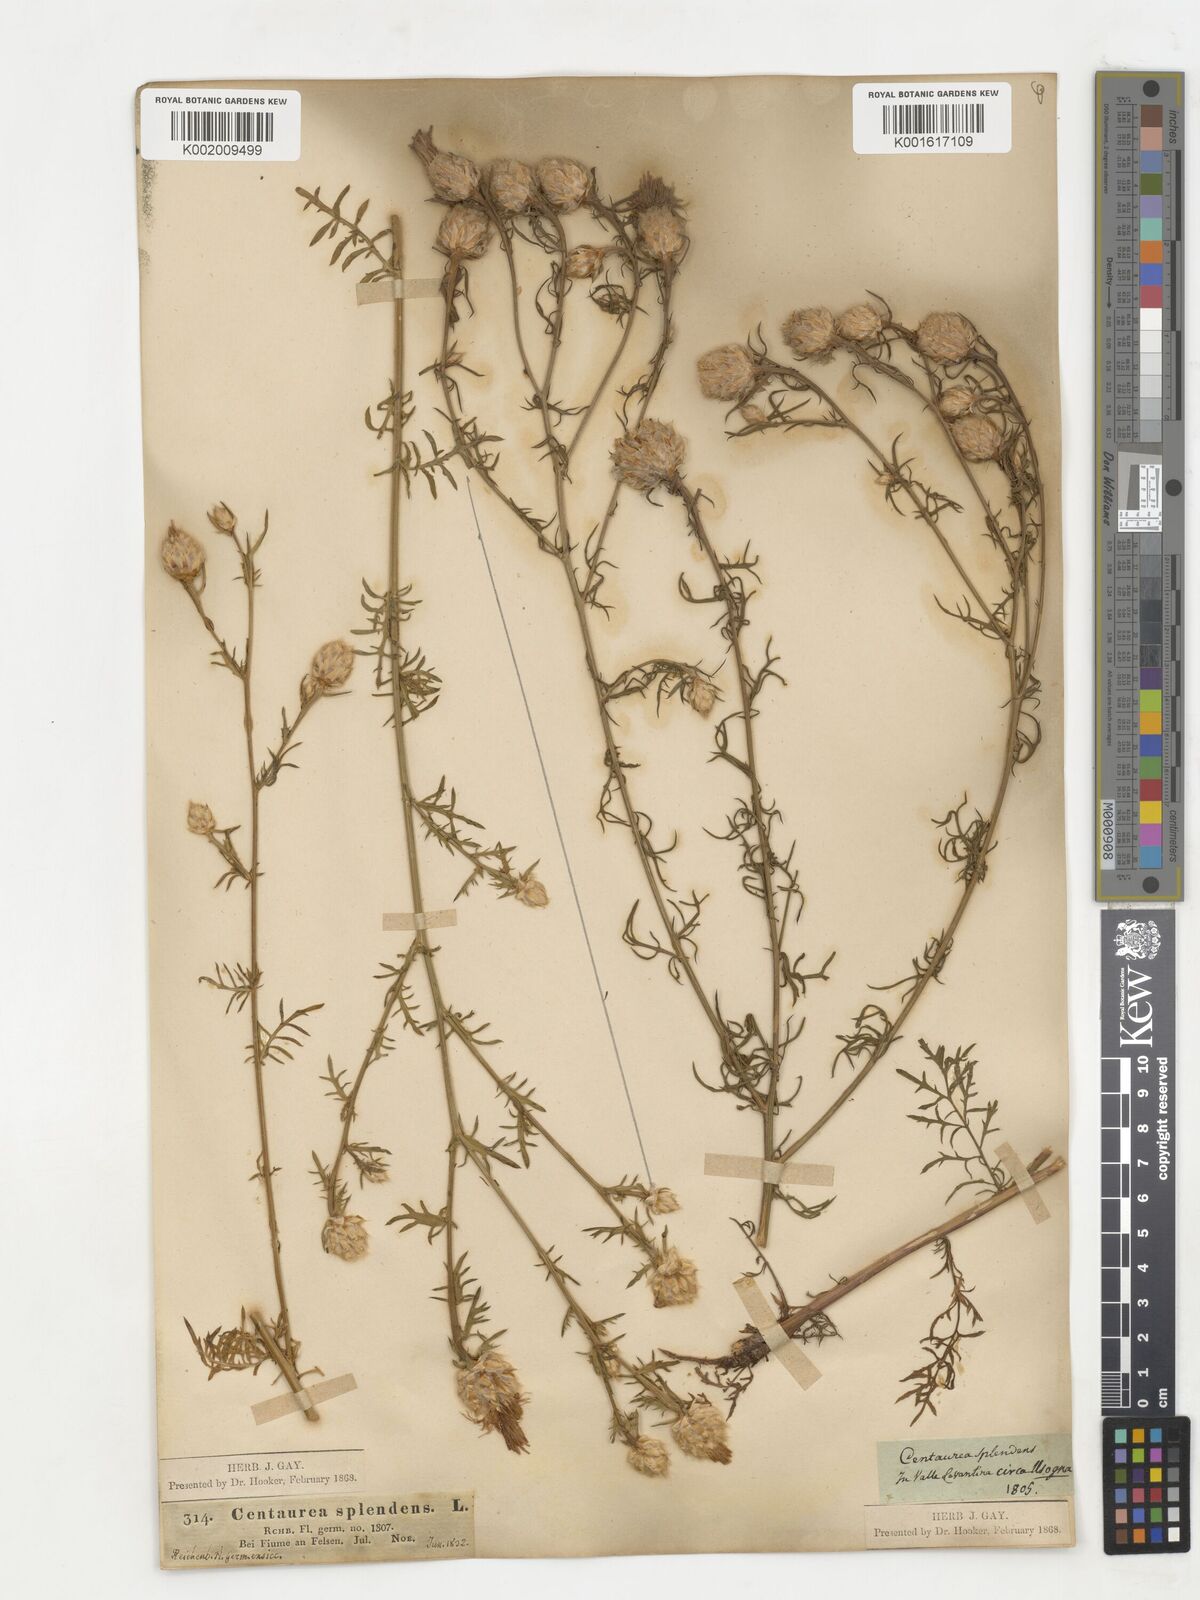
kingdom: Plantae
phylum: Tracheophyta
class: Magnoliopsida
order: Asterales
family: Asteraceae
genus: Centaurea
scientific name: Centaurea splendens
